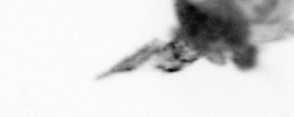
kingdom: Chromista
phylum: Ochrophyta
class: Bacillariophyceae
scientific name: Bacillariophyceae
